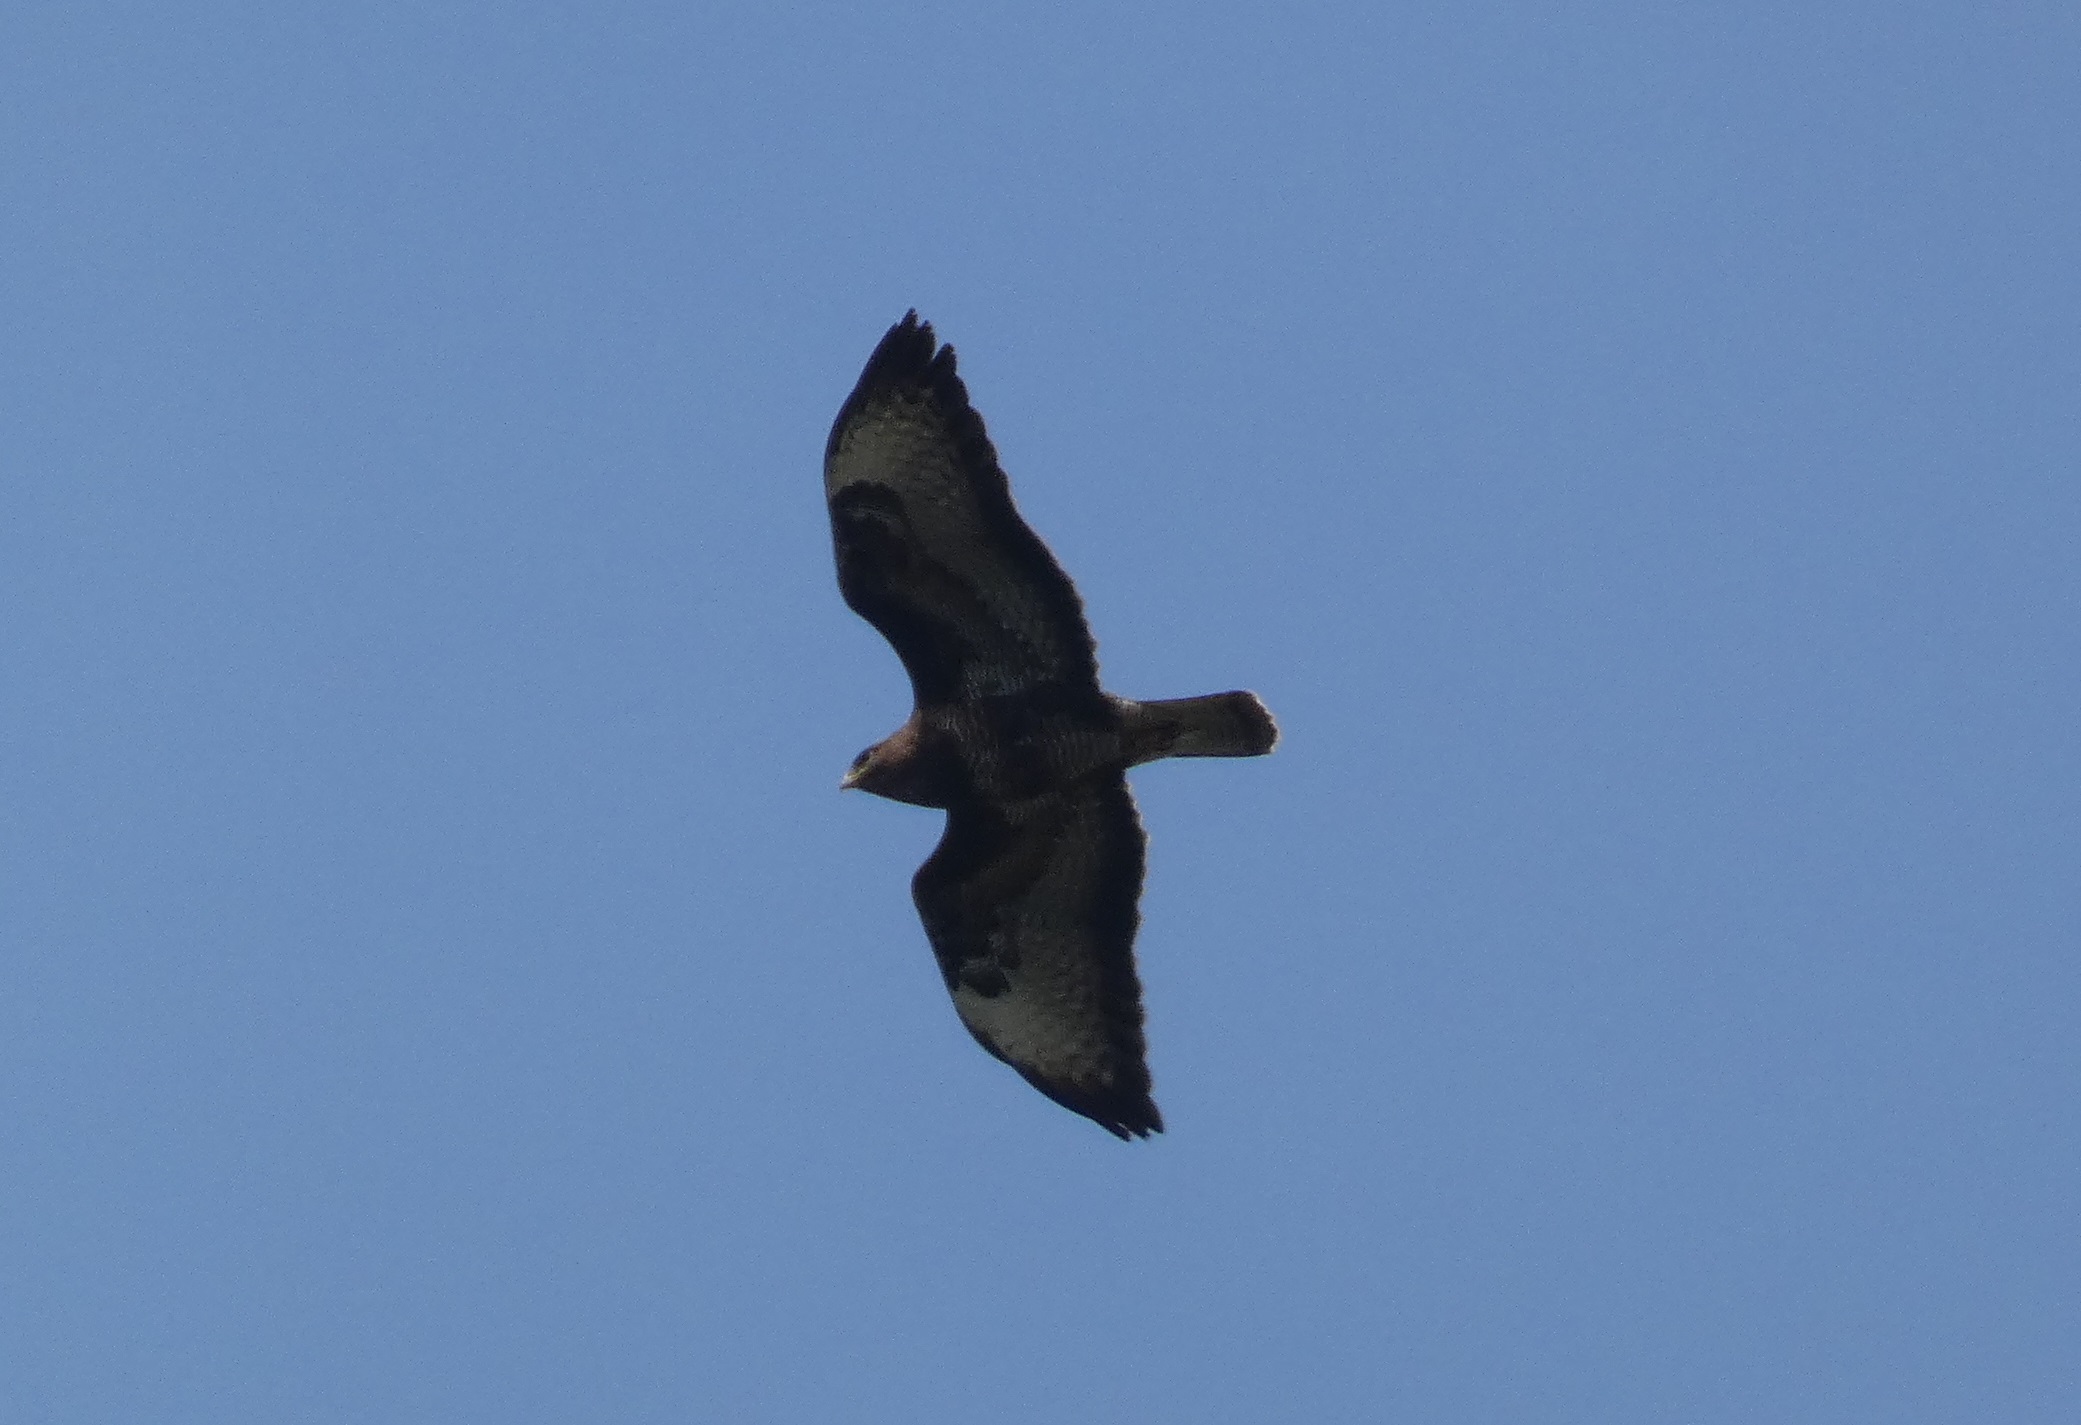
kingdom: Animalia
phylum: Chordata
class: Aves
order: Accipitriformes
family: Accipitridae
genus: Buteo
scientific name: Buteo buteo
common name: Musvåge
